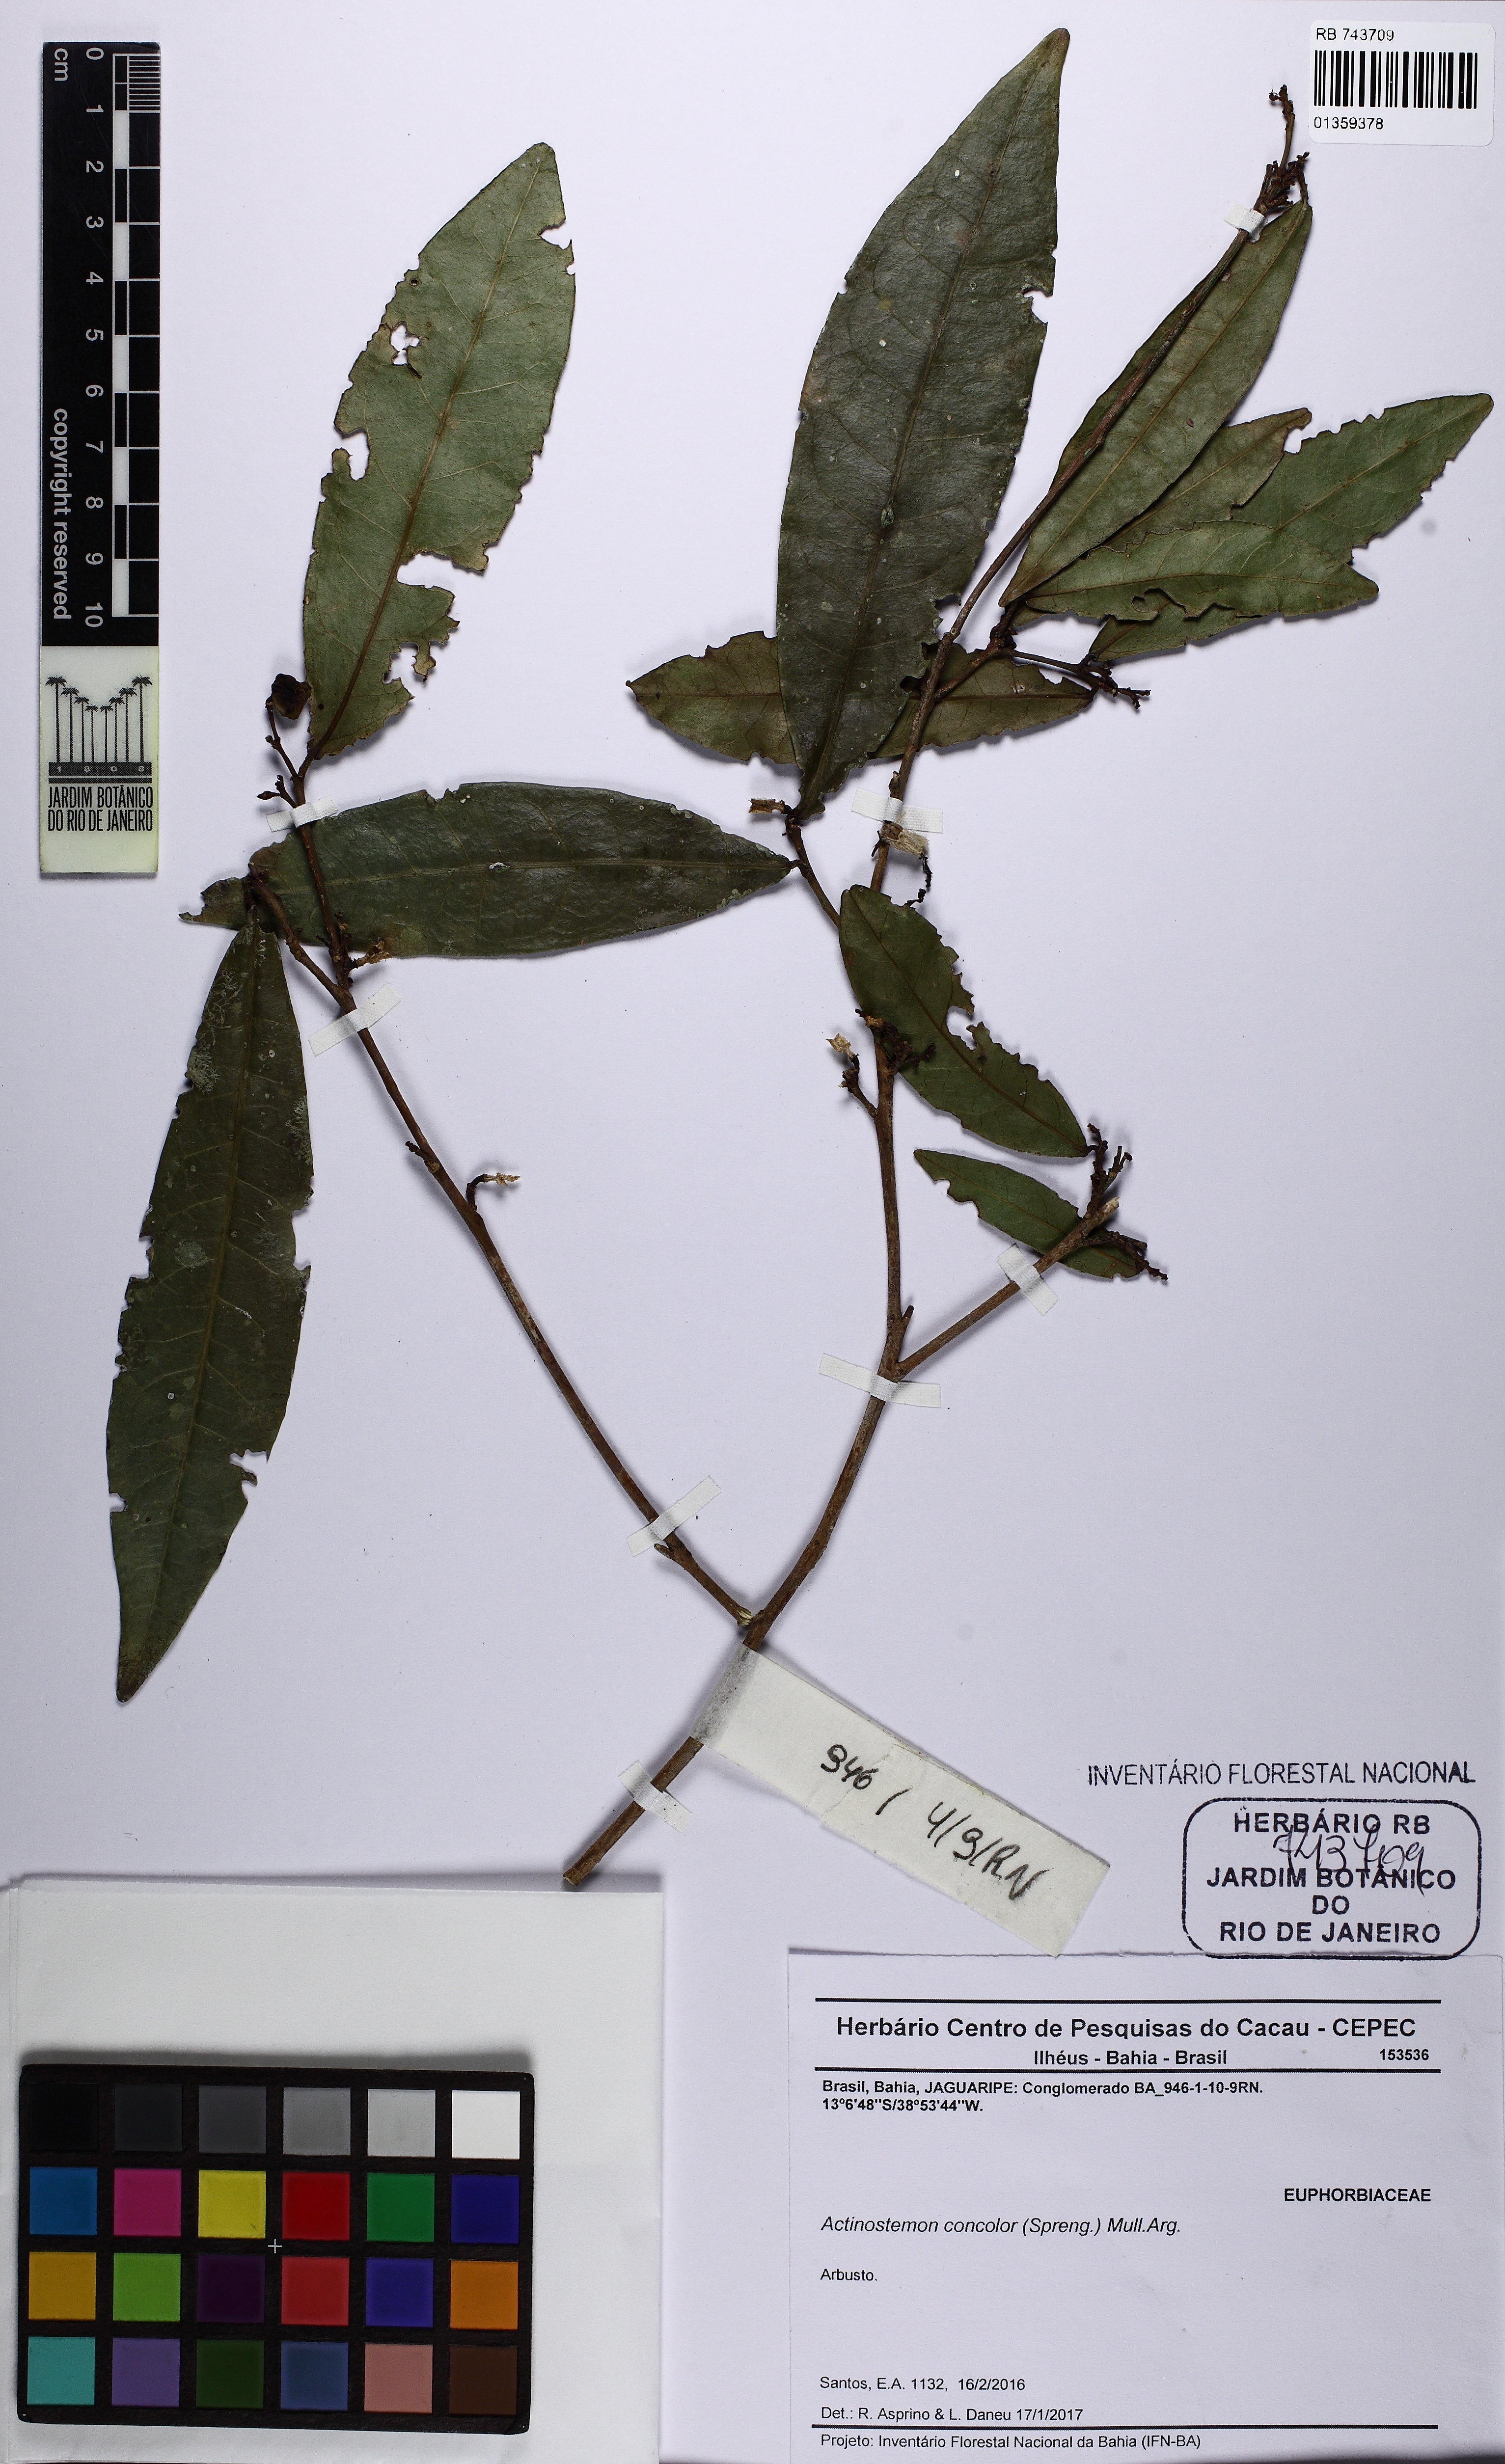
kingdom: Plantae
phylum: Tracheophyta
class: Magnoliopsida
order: Malpighiales
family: Euphorbiaceae
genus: Actinostemon
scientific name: Actinostemon concolor
